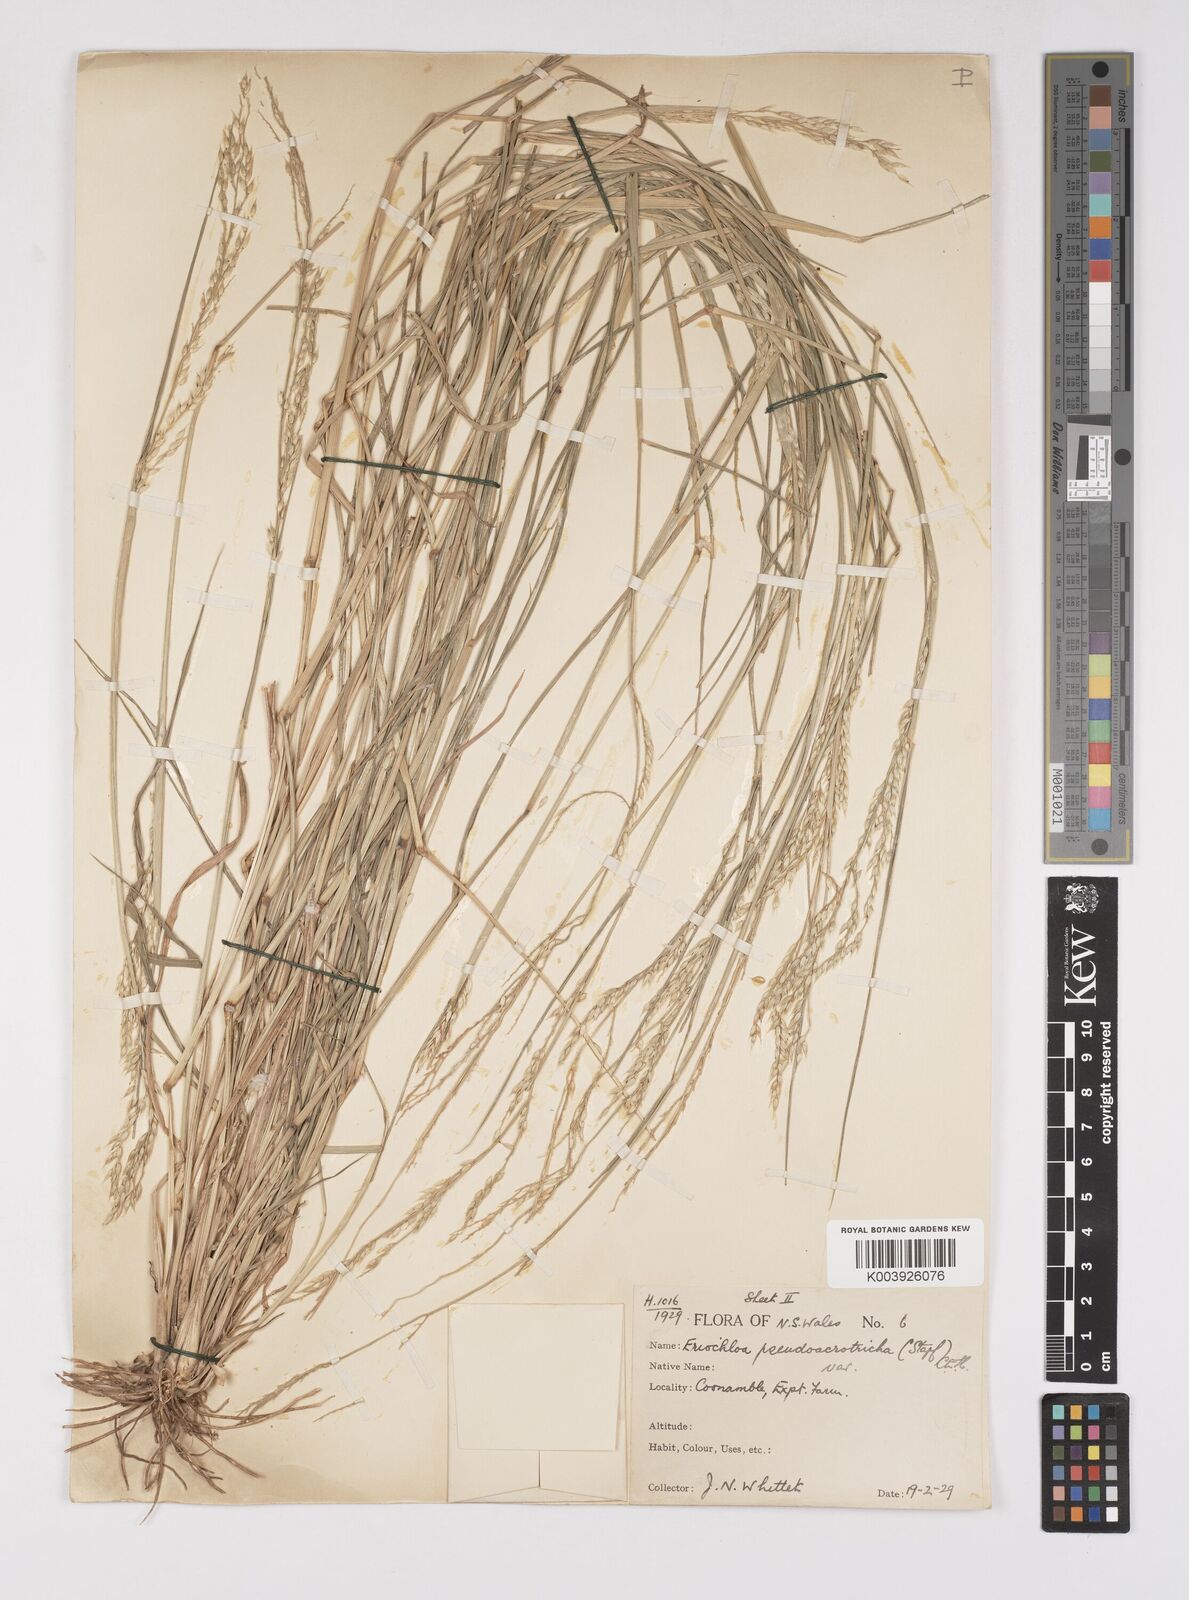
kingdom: Plantae
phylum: Tracheophyta
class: Liliopsida
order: Poales
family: Poaceae
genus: Eriochloa
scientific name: Eriochloa pseudoacrotricha
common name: Perennial cup-grass
